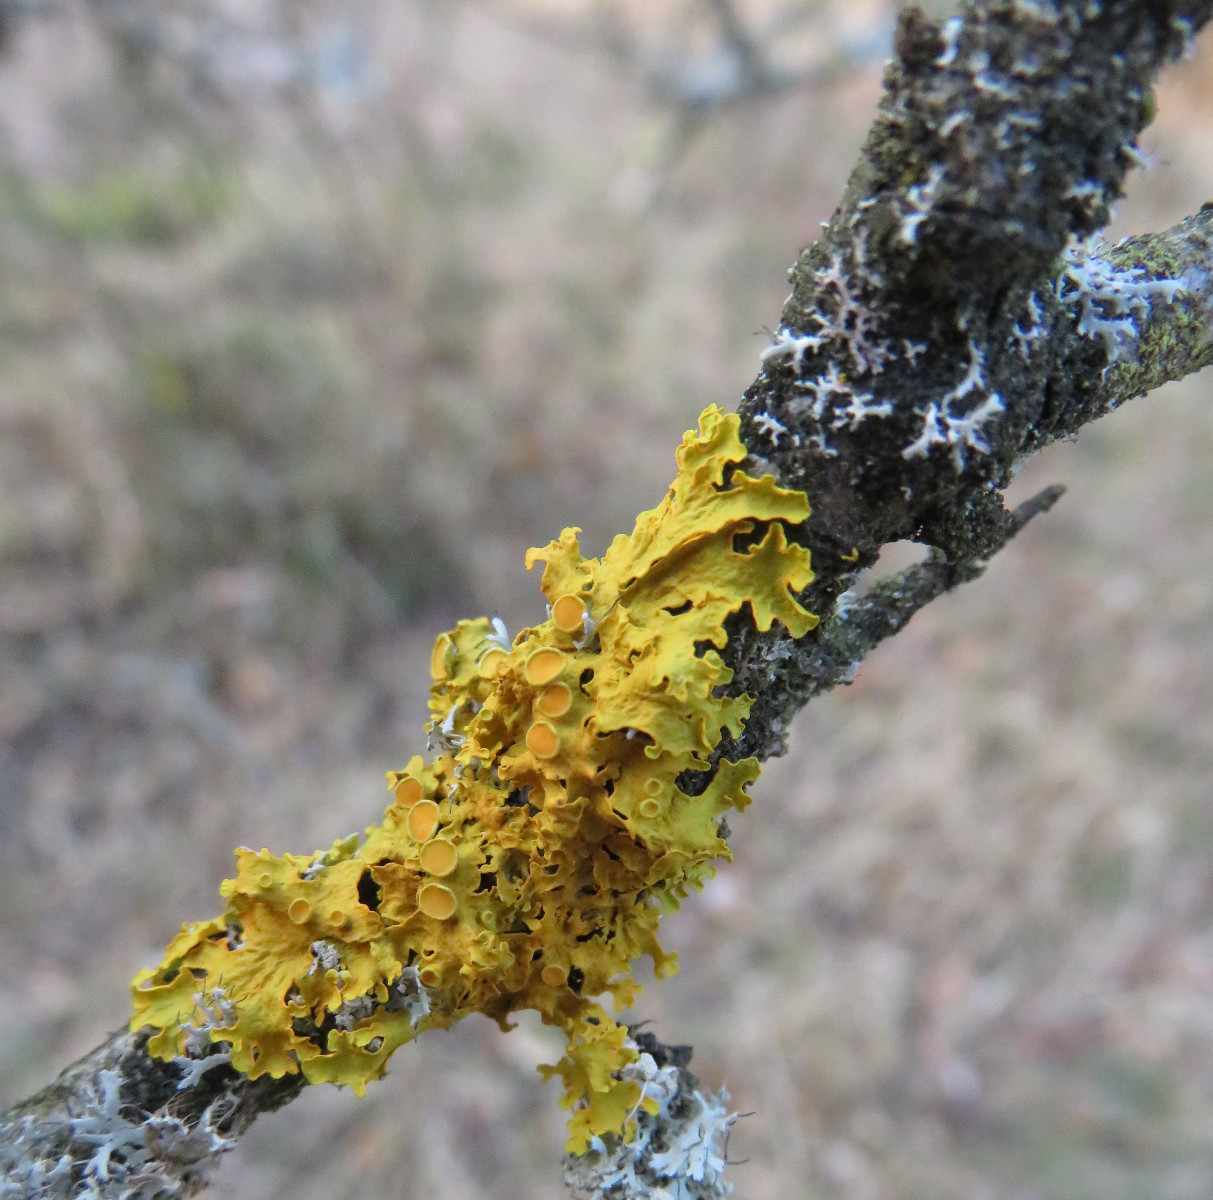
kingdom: Fungi
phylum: Ascomycota
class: Lecanoromycetes
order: Teloschistales
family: Teloschistaceae
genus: Xanthoria
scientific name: Xanthoria parietina
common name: almindelig væggelav
